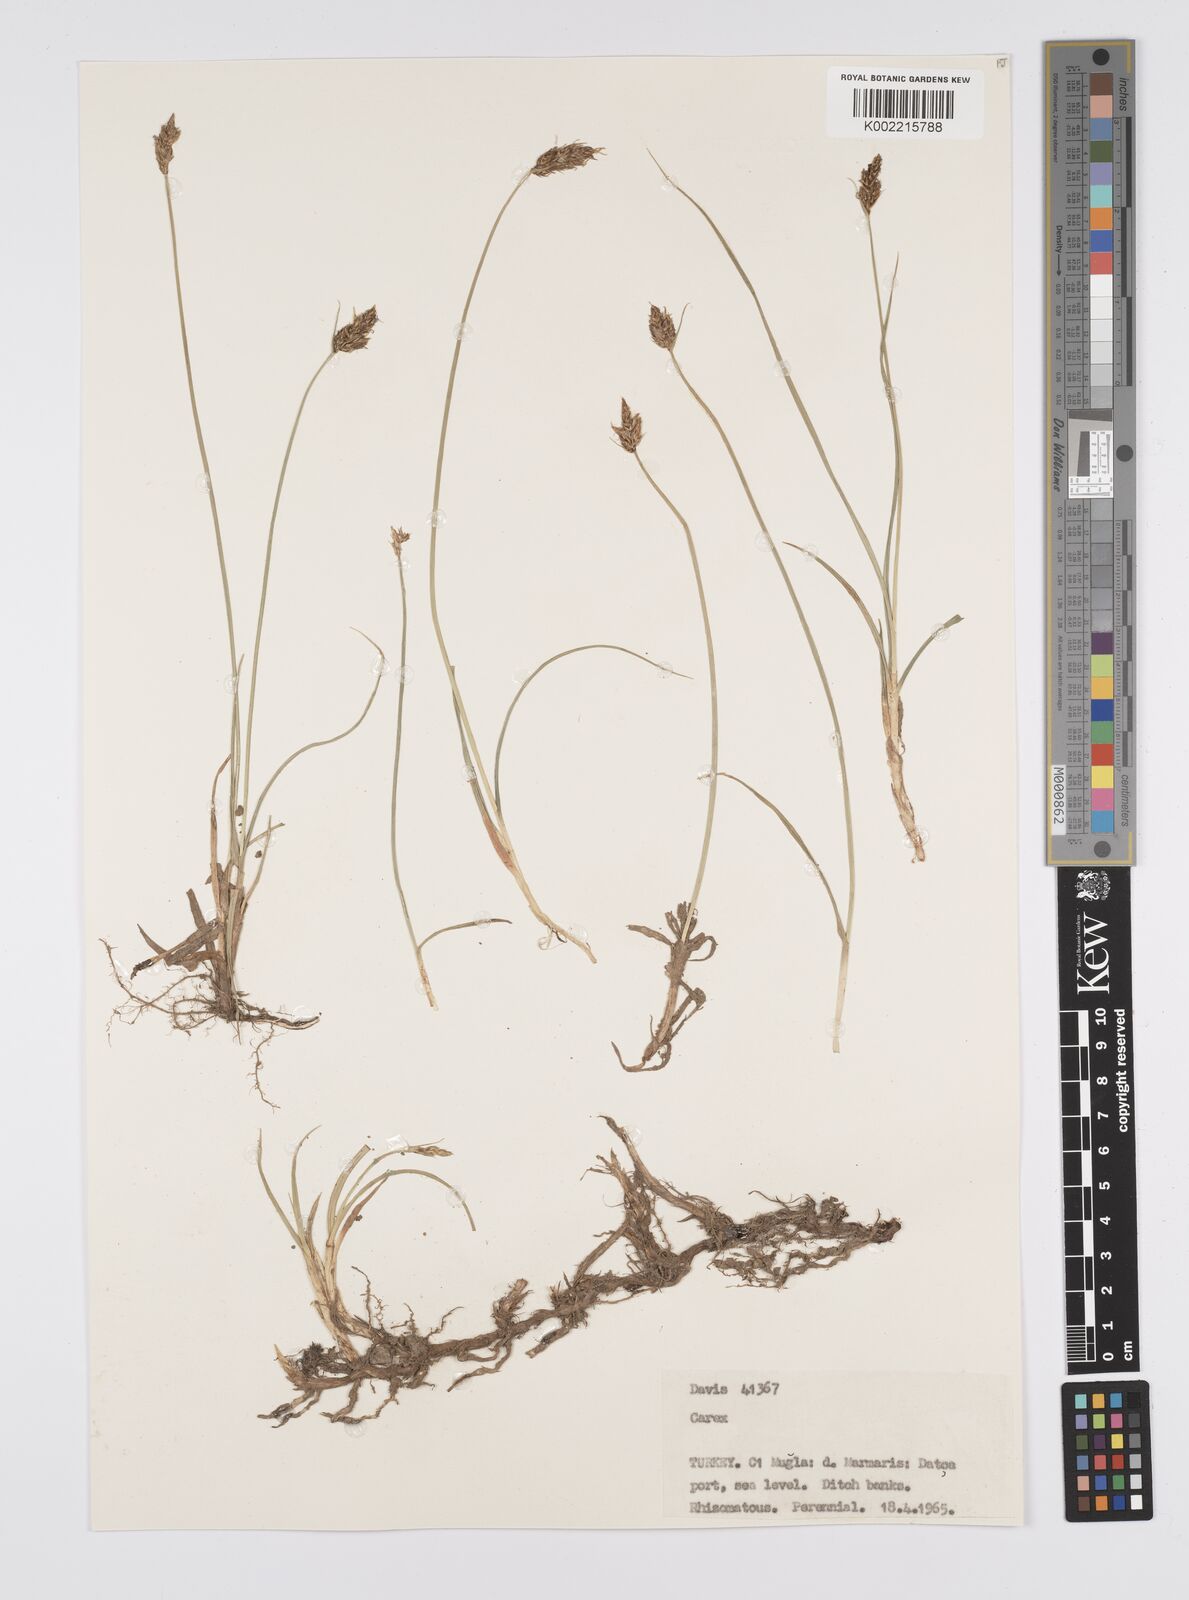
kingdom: Plantae
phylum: Tracheophyta
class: Liliopsida
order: Poales
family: Cyperaceae
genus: Carex
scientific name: Carex
